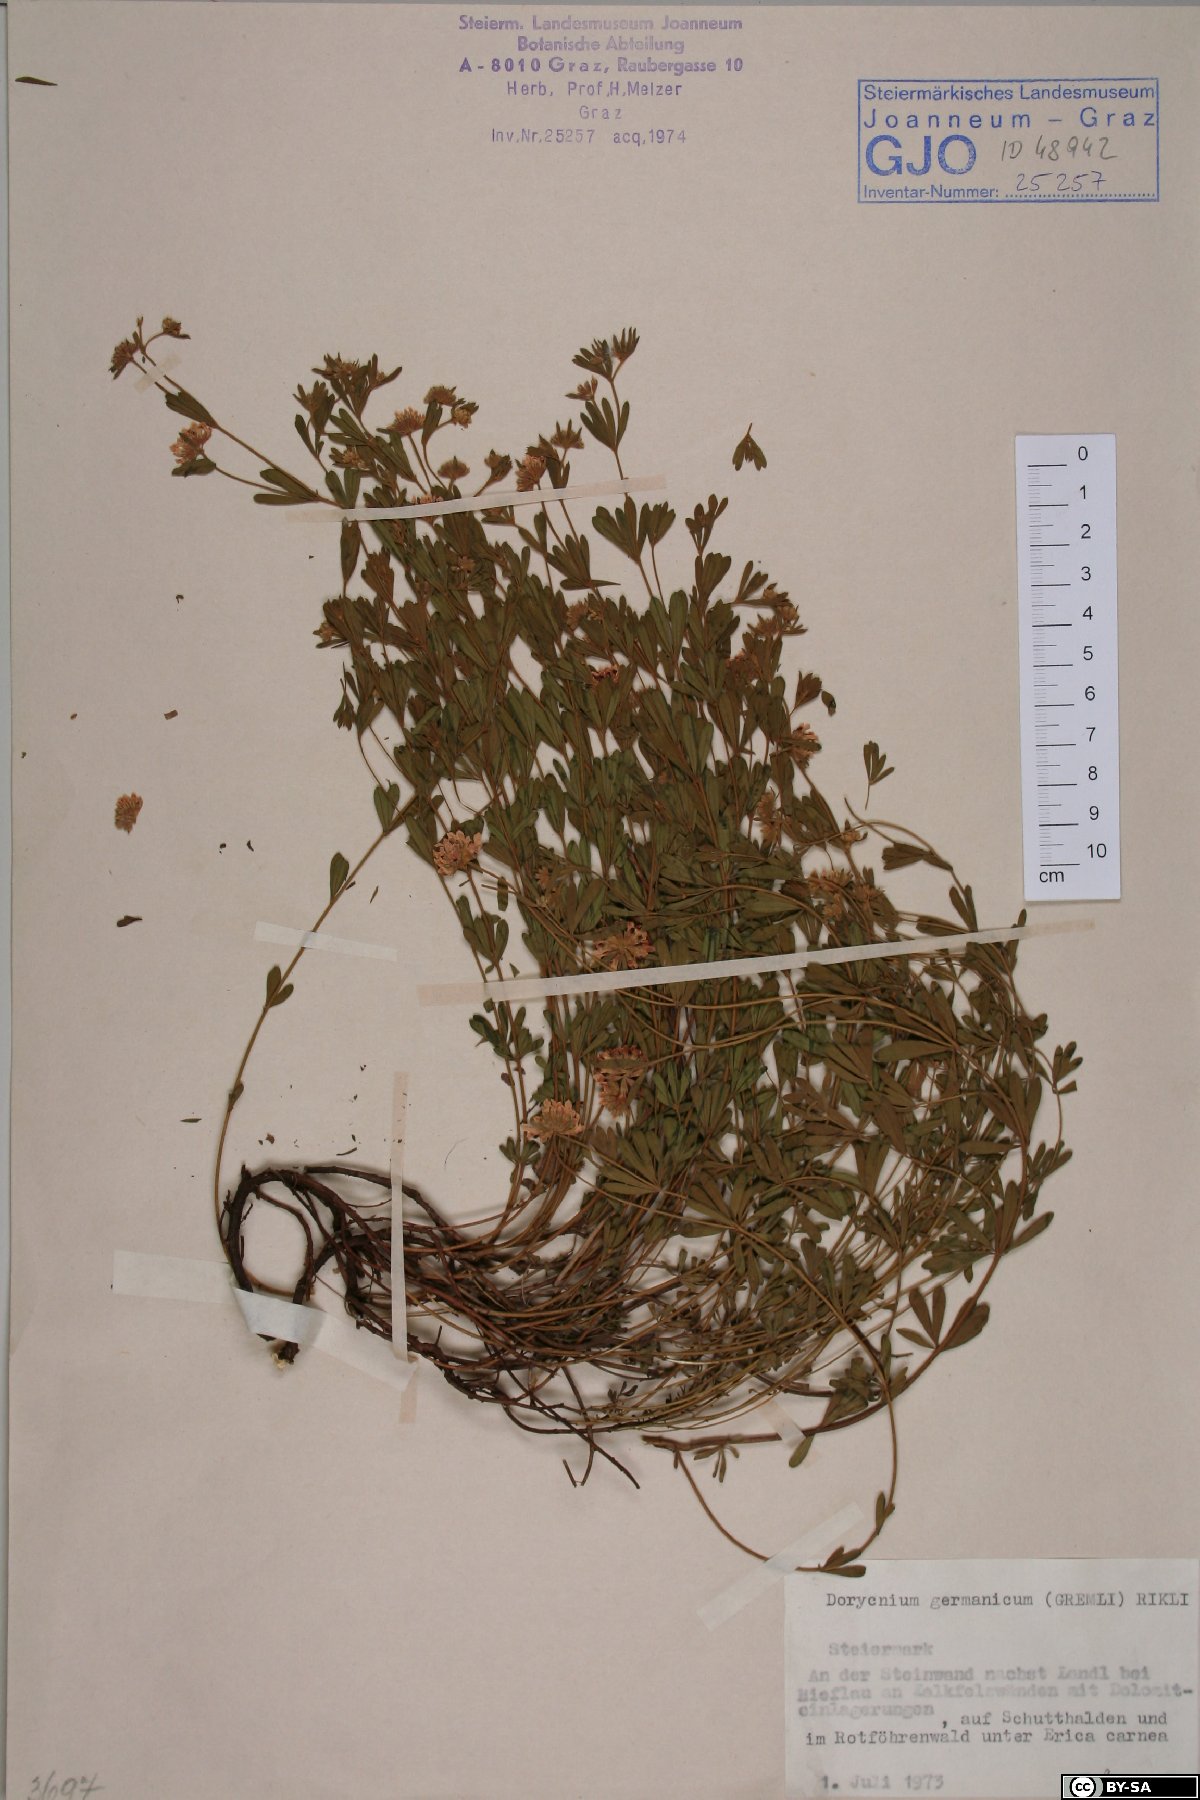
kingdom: Plantae
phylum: Tracheophyta
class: Magnoliopsida
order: Fabales
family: Fabaceae
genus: Lotus
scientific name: Lotus germanicus
